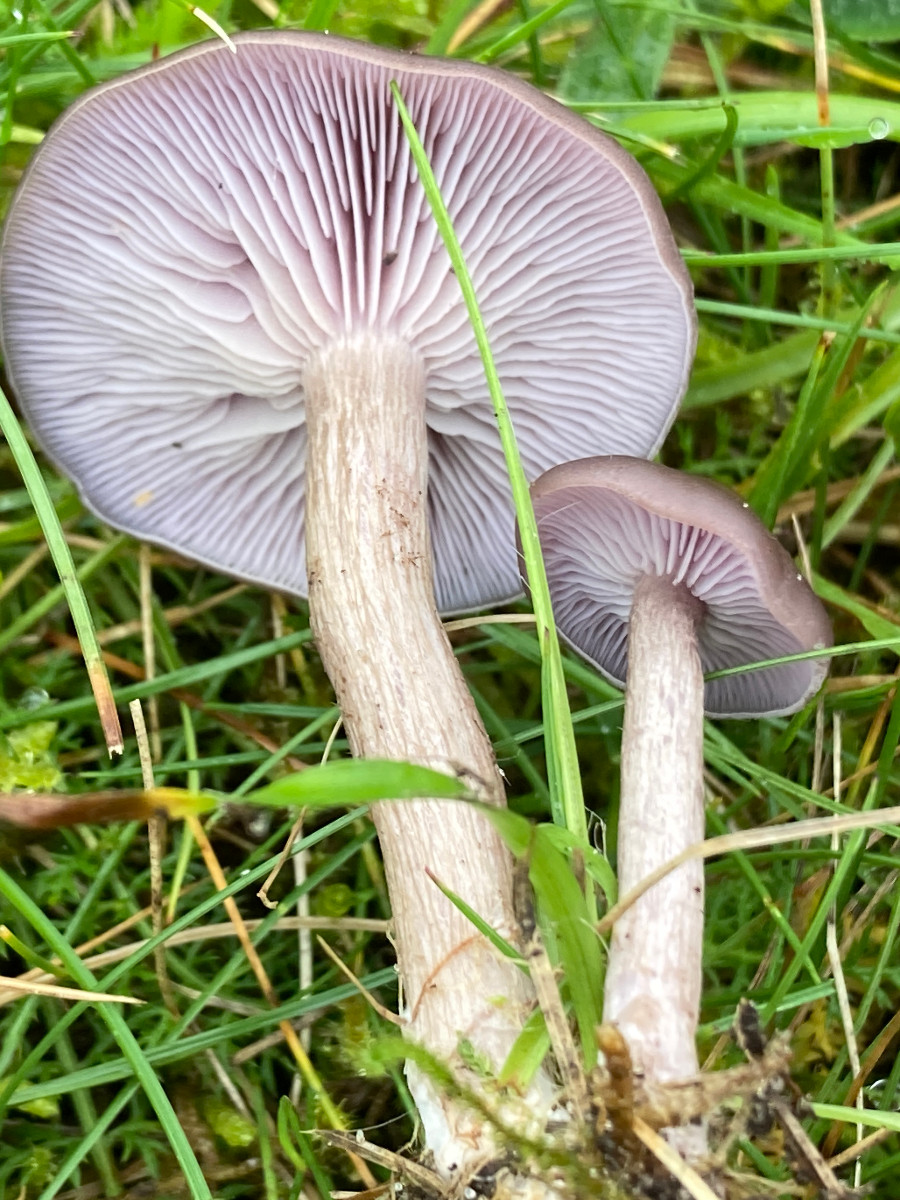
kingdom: Fungi
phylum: Basidiomycota
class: Agaricomycetes
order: Agaricales
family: Tricholomataceae
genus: Lepista
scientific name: Lepista sordida
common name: spinkel hekseringshat
